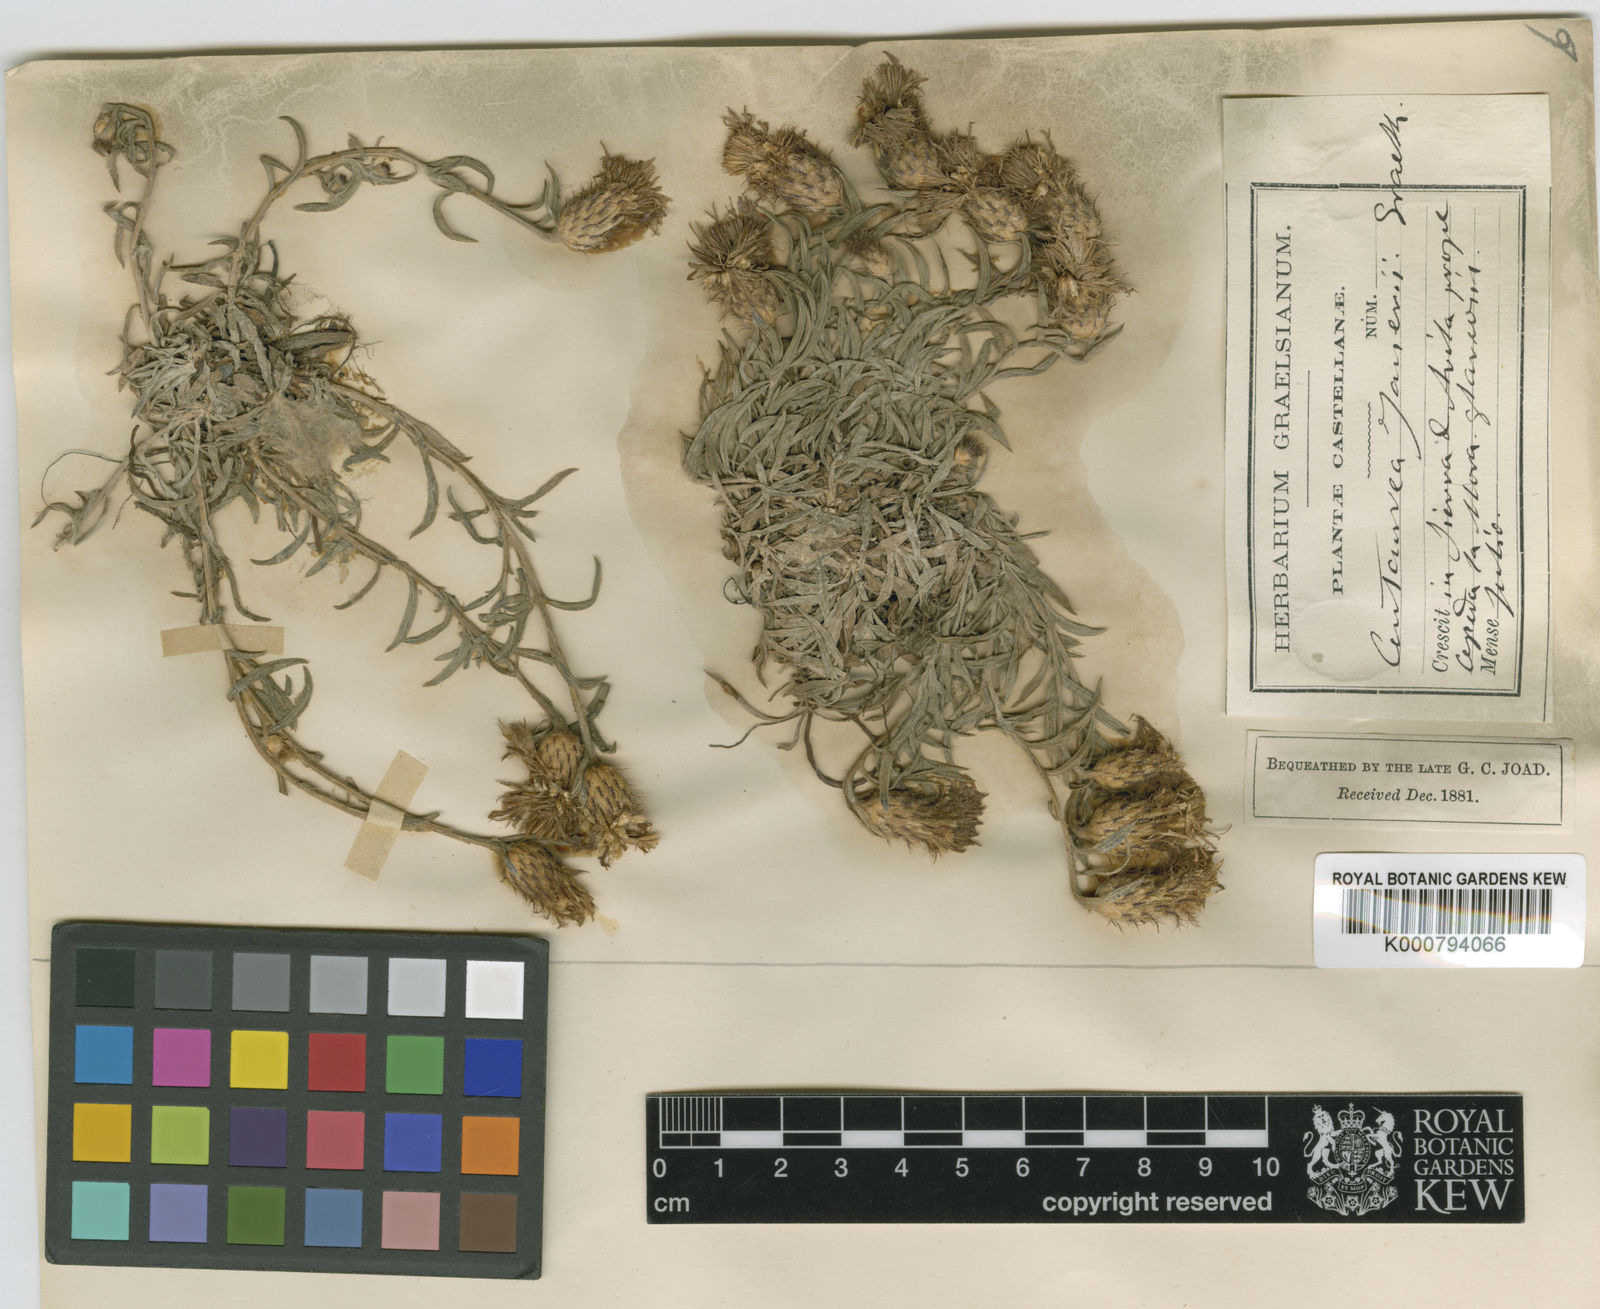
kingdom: Plantae
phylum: Tracheophyta
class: Magnoliopsida
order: Asterales
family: Asteraceae
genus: Centaurea
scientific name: Centaurea janeri
